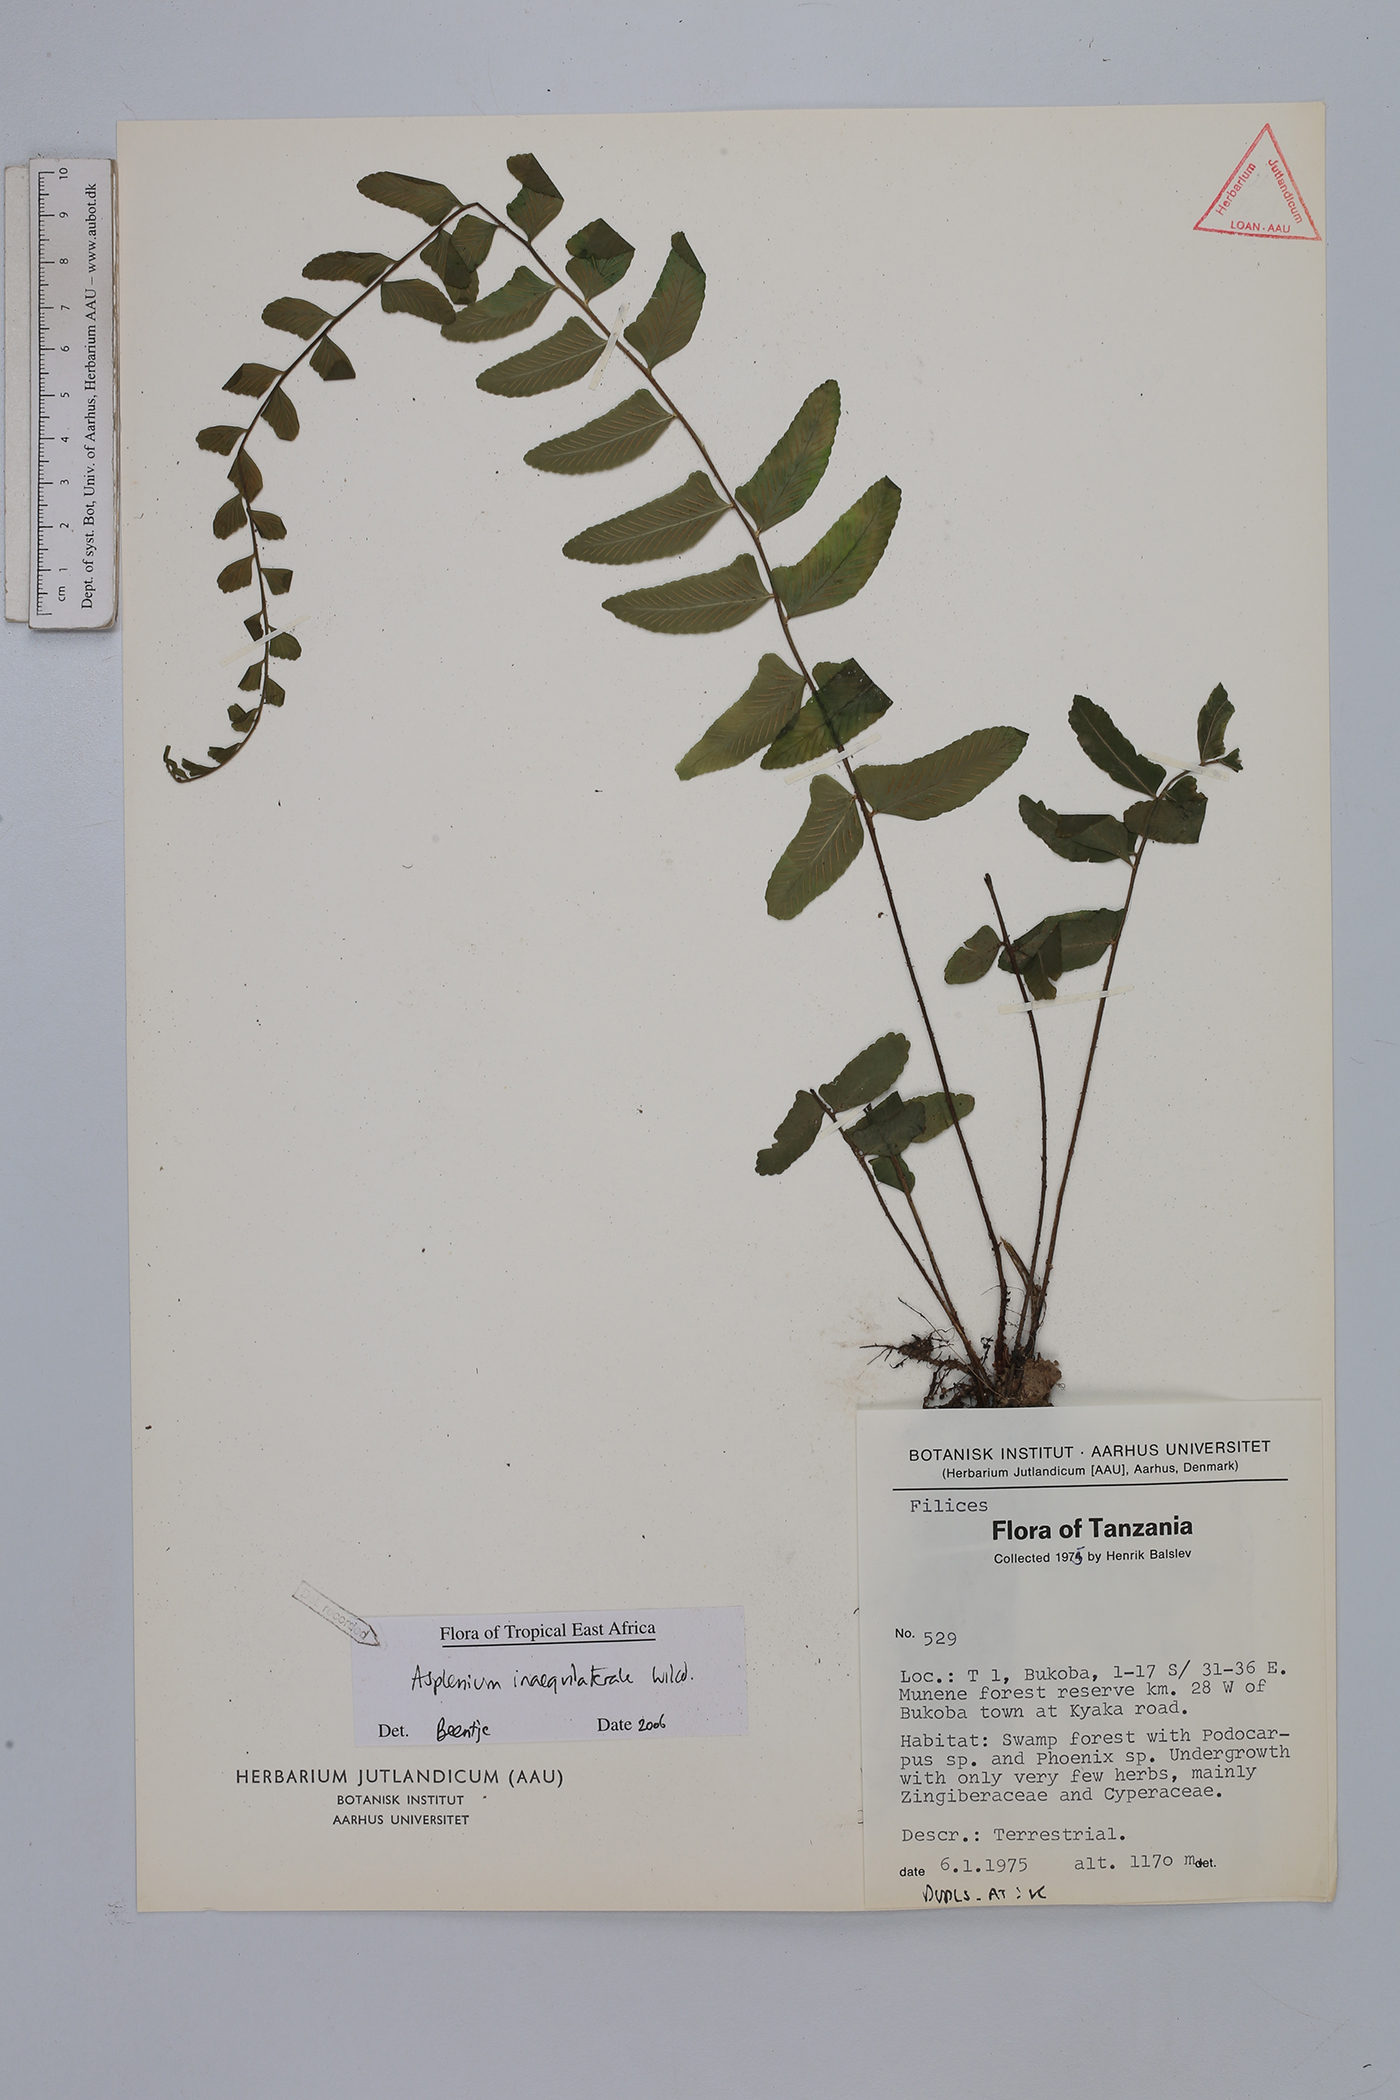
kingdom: Plantae
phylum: Tracheophyta
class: Polypodiopsida
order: Polypodiales
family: Aspleniaceae
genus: Asplenium
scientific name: Asplenium inaequilaterale
